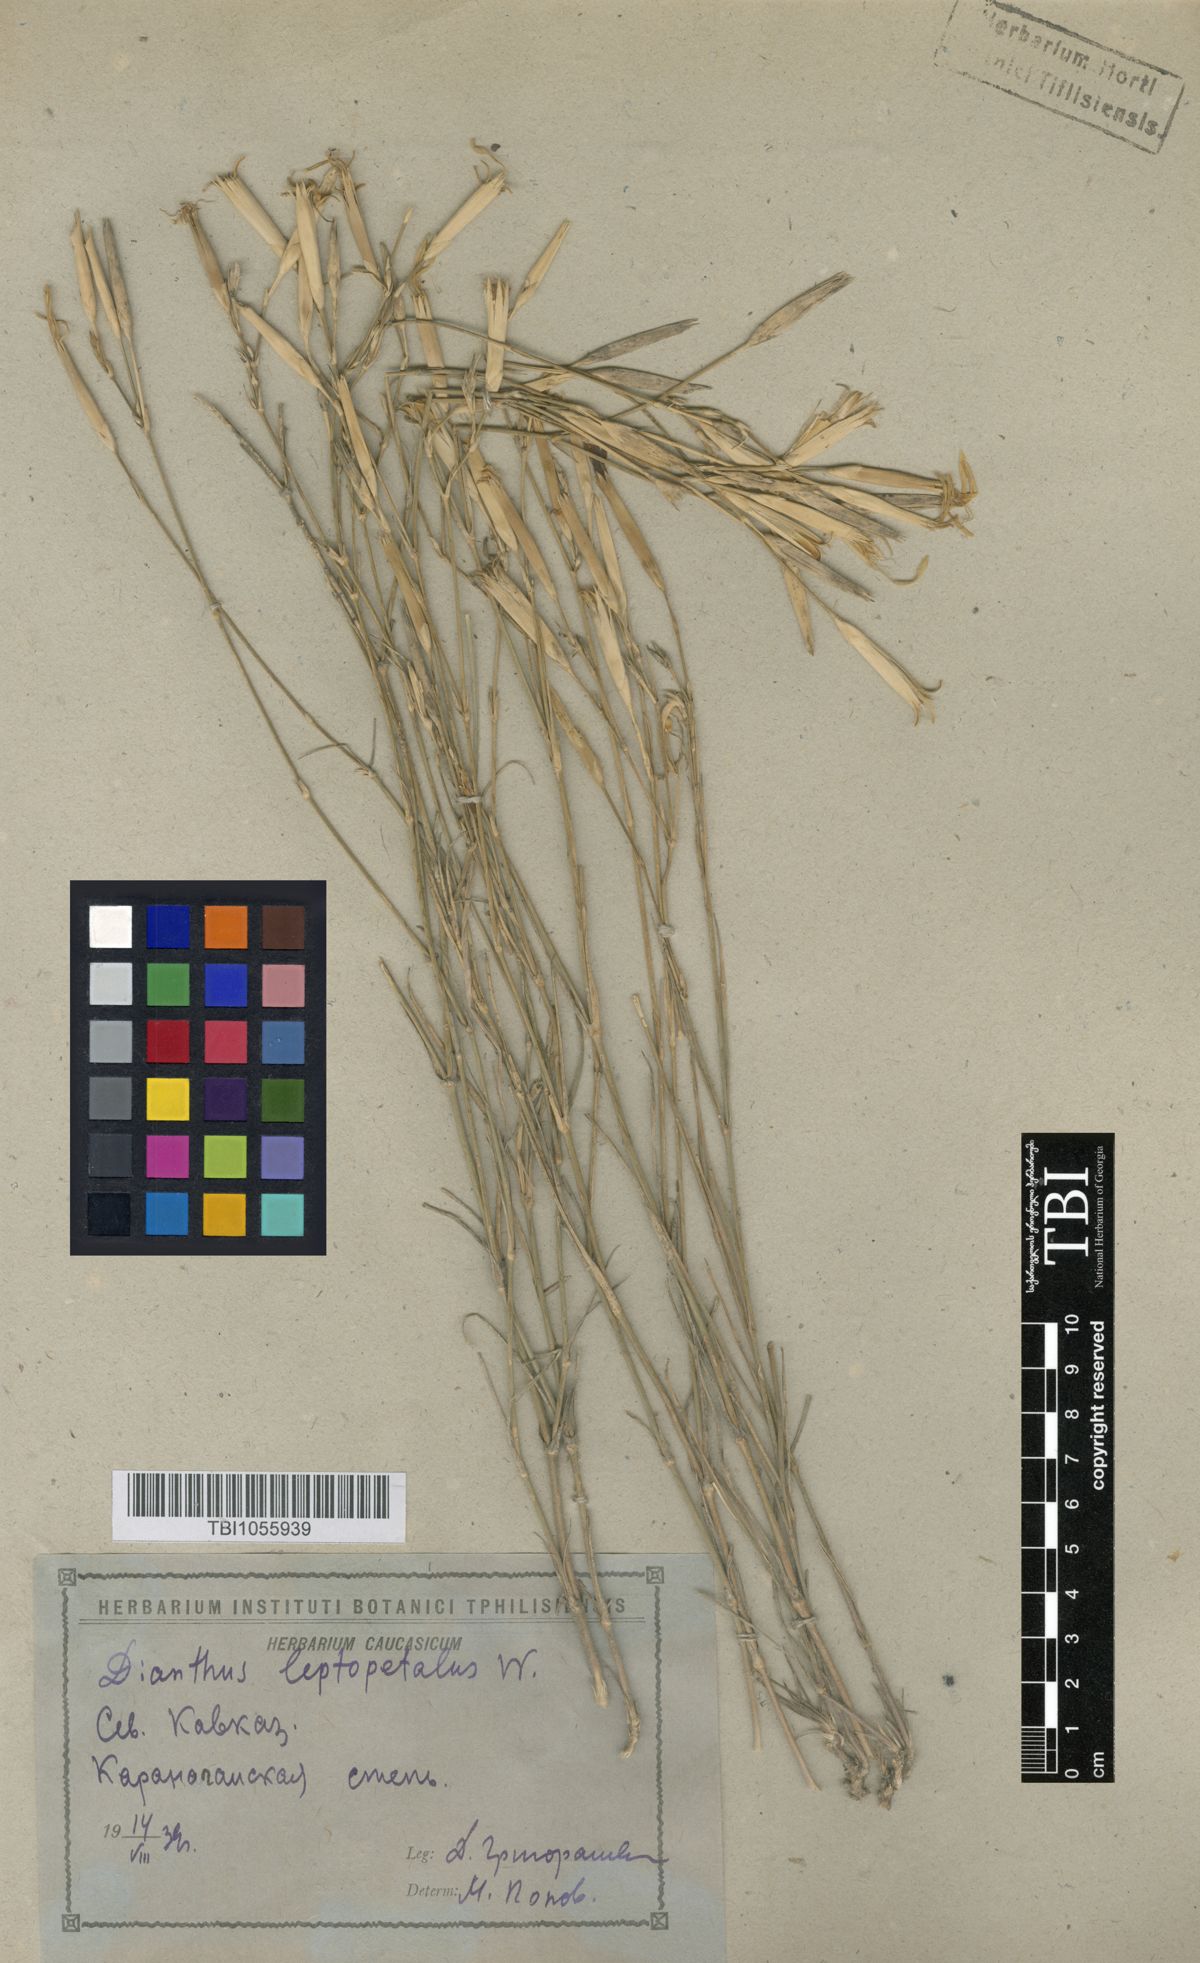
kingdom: Plantae
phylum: Tracheophyta
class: Magnoliopsida
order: Caryophyllales
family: Caryophyllaceae
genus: Dianthus
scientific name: Dianthus leptopetalus
